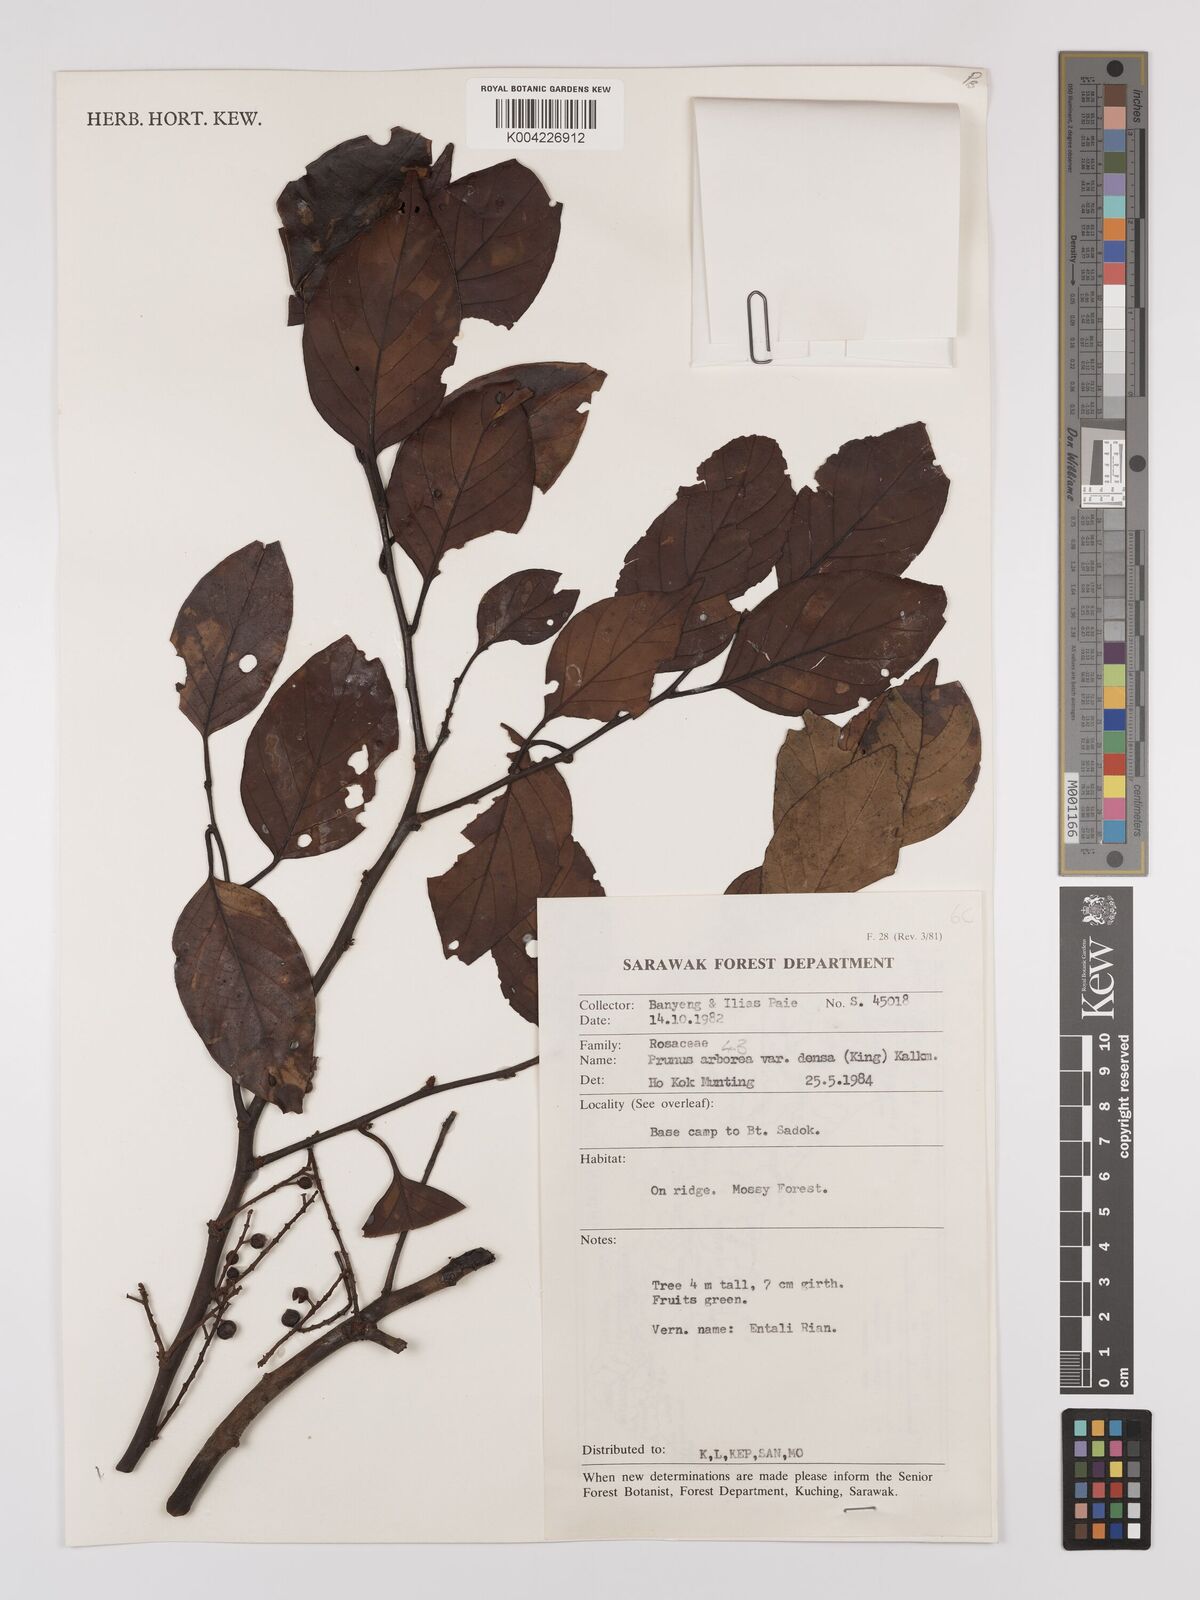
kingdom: Plantae
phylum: Tracheophyta
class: Magnoliopsida
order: Rosales
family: Rosaceae
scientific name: Rosaceae
